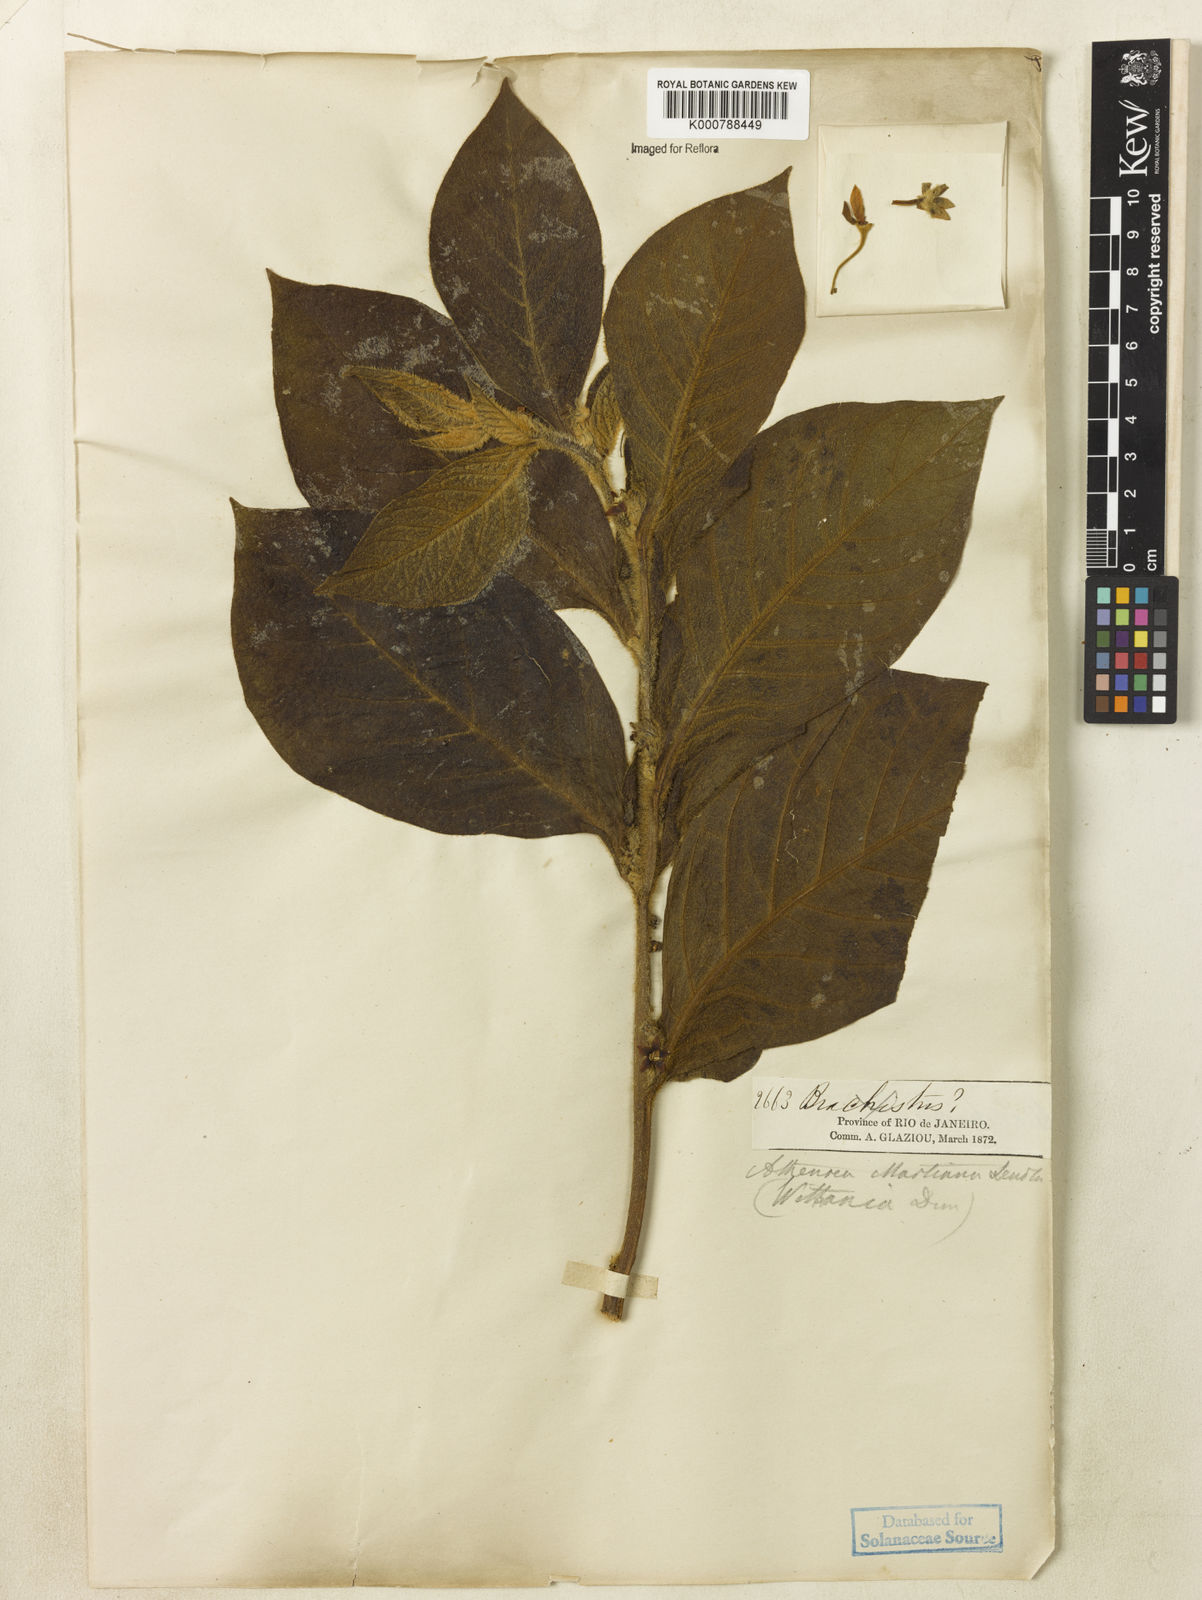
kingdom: Plantae
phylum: Tracheophyta
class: Magnoliopsida
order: Solanales
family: Solanaceae
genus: Athenaea
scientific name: Athenaea martiana
